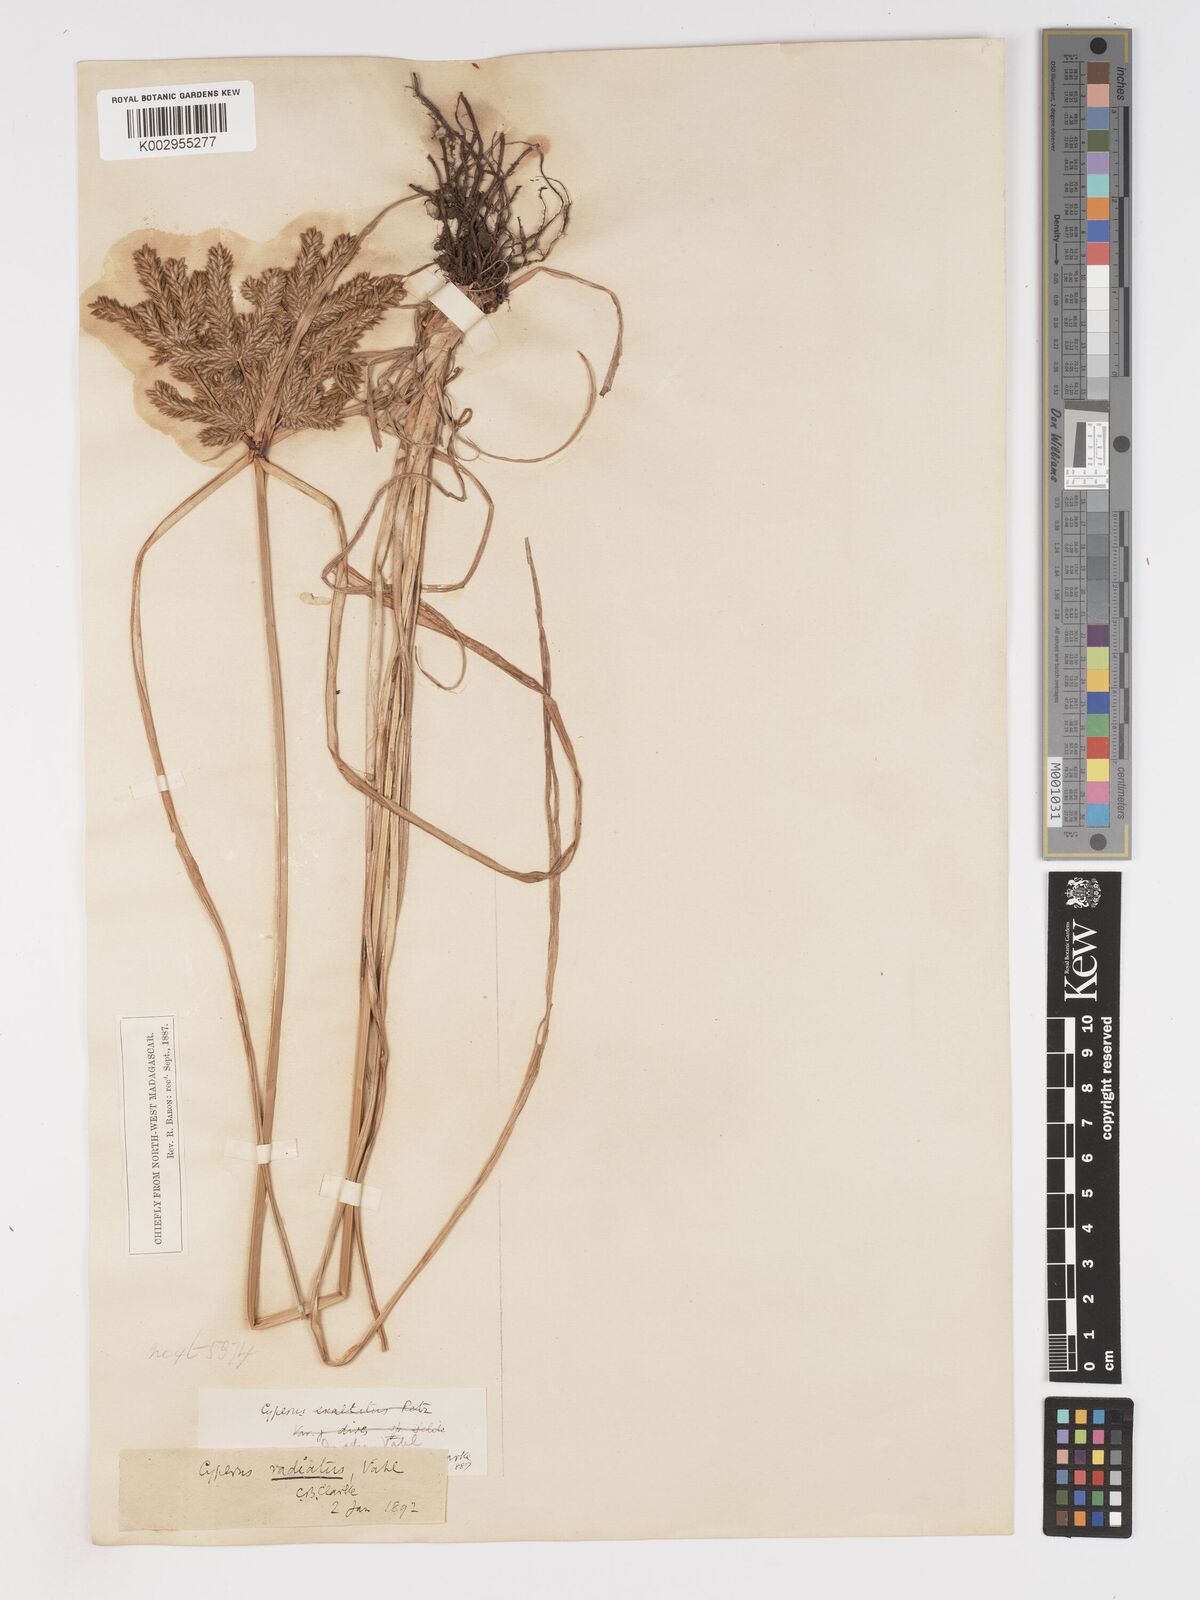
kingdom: Plantae
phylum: Tracheophyta
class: Liliopsida
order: Poales
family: Cyperaceae
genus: Cyperus
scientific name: Cyperus imbricatus
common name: Shingle flatsedge
